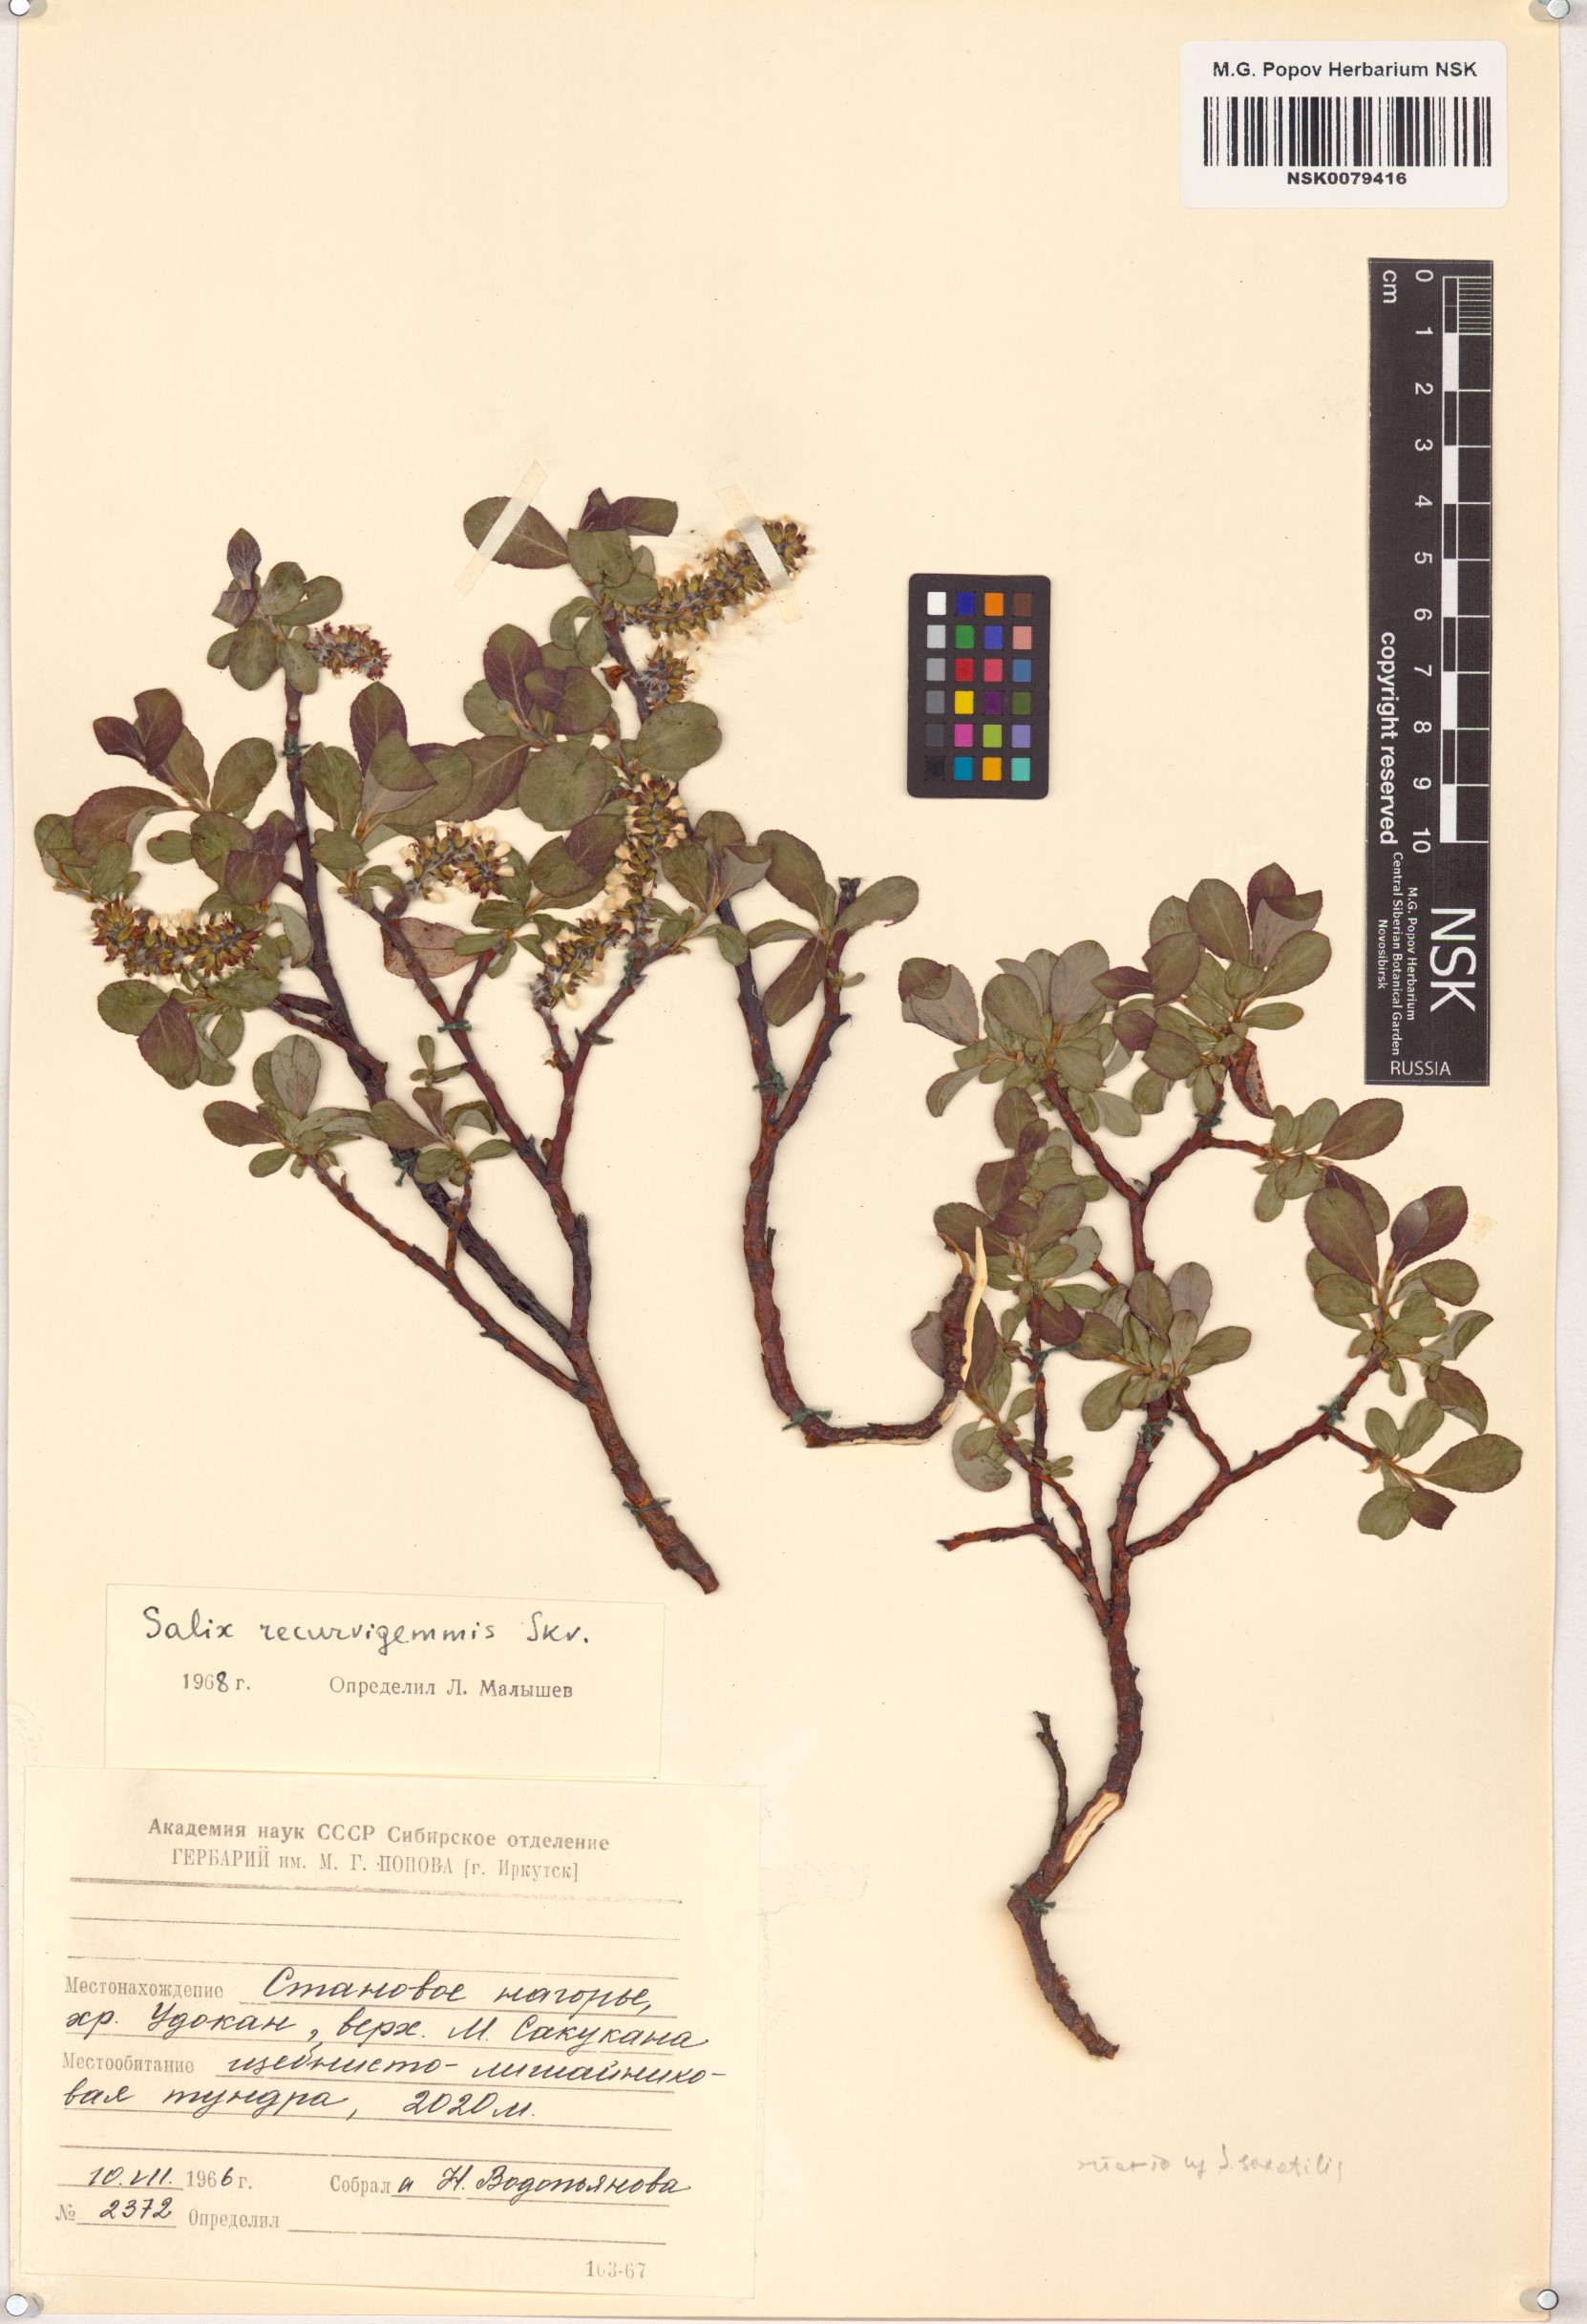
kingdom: Plantae
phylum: Tracheophyta
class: Magnoliopsida
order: Malpighiales
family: Salicaceae
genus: Salix
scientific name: Salix recurvigemmata
